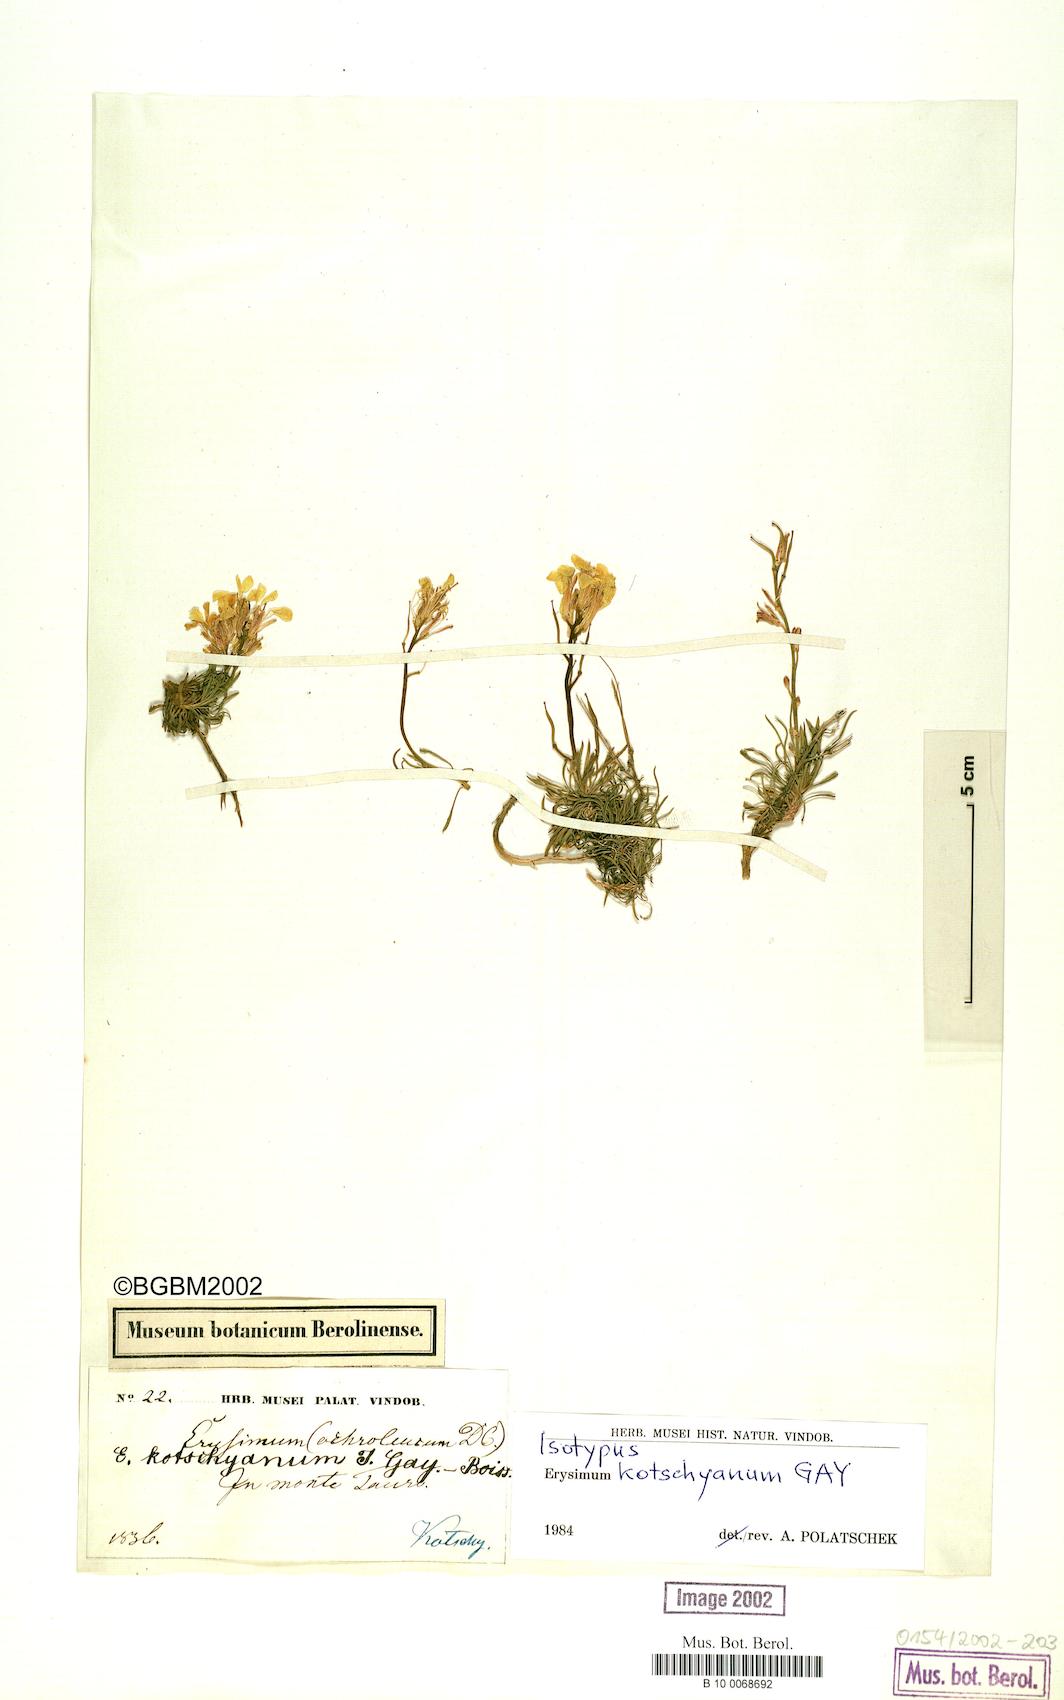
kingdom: Plantae
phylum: Tracheophyta
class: Magnoliopsida
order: Brassicales
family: Brassicaceae
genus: Erysimum
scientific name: Erysimum kotschyanum
